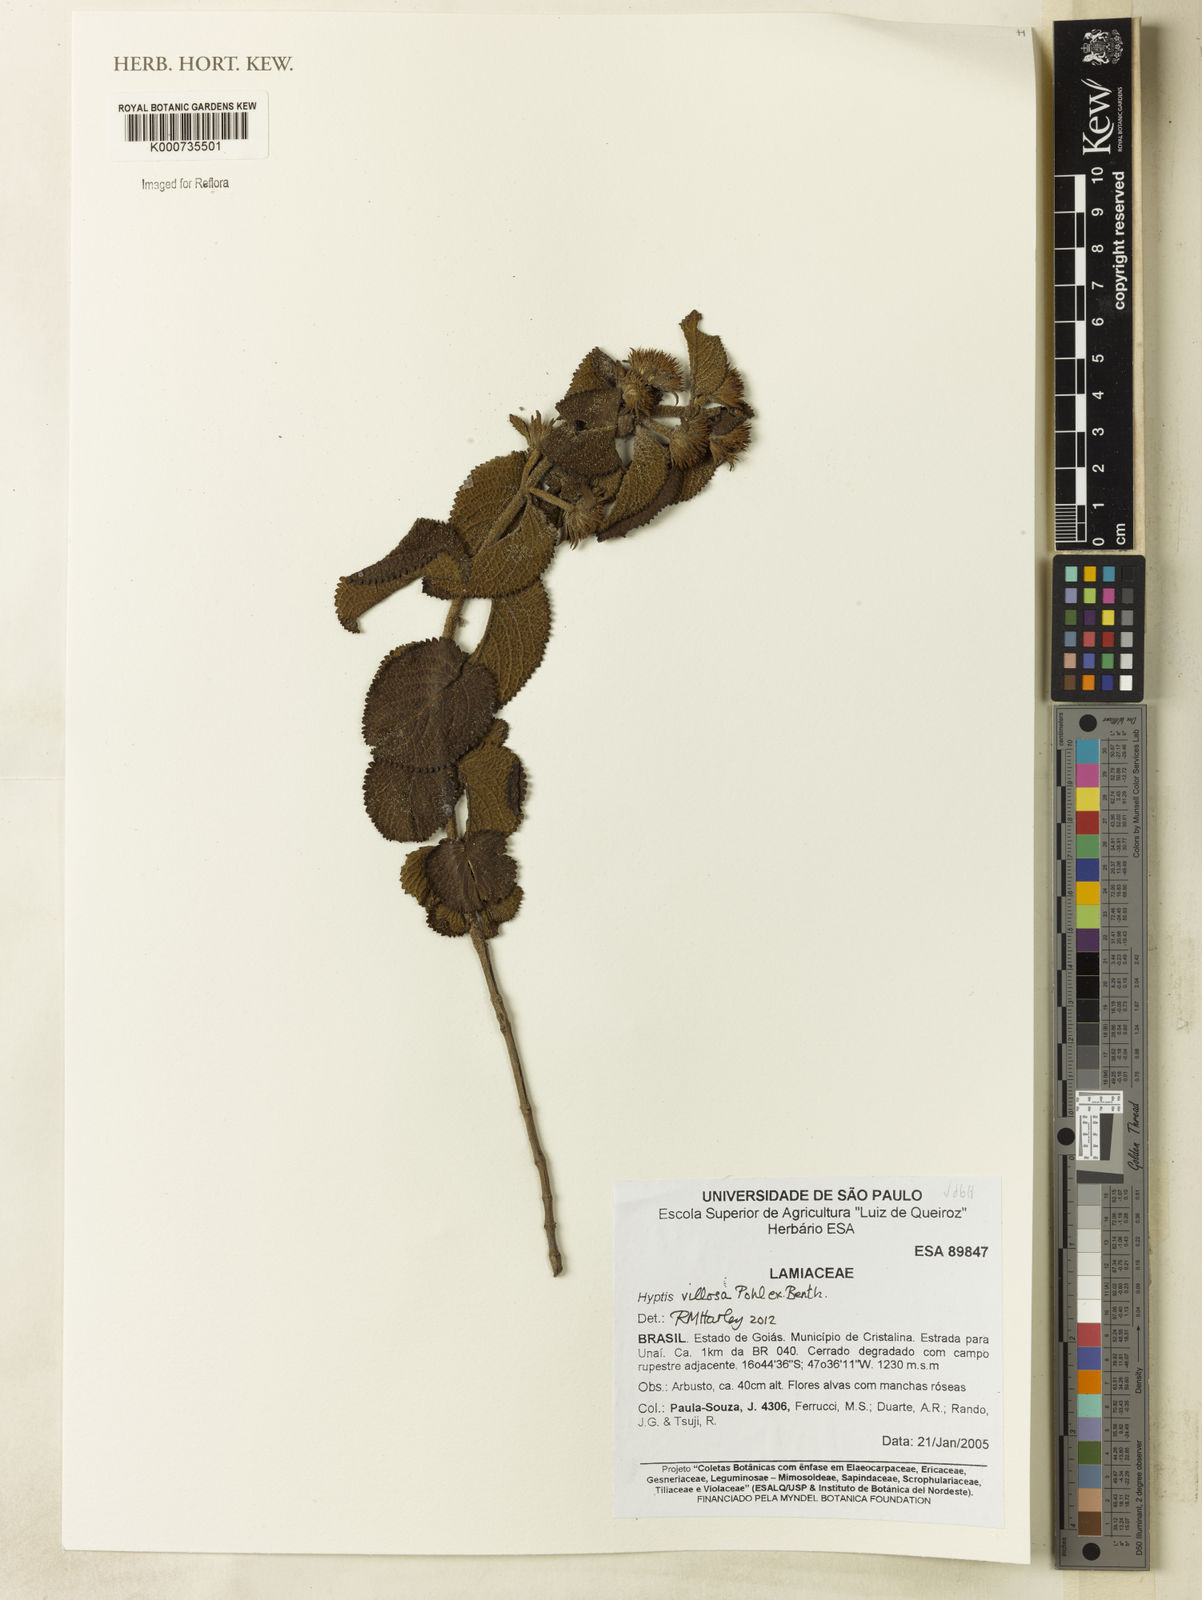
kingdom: Plantae
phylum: Tracheophyta
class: Magnoliopsida
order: Lamiales
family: Lamiaceae
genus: Hyptis
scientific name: Hyptis villosa
